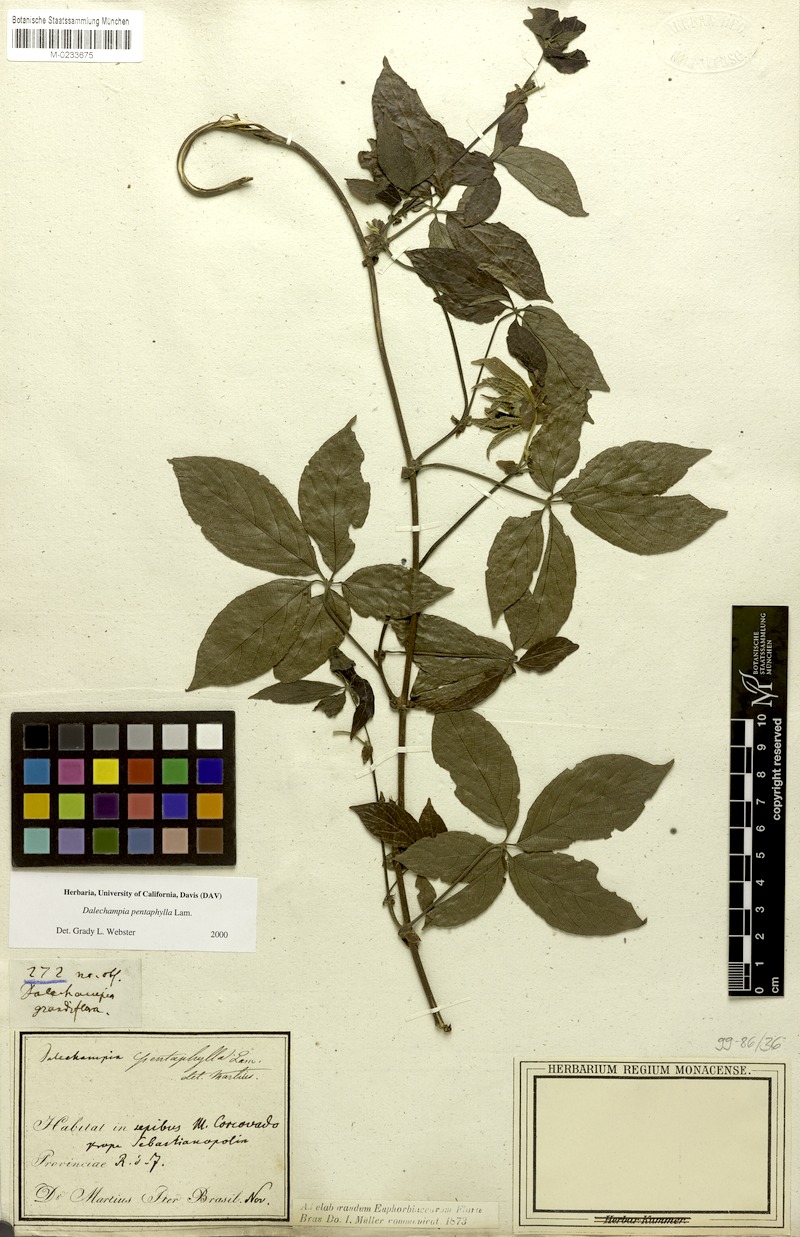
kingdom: Plantae
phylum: Tracheophyta
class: Magnoliopsida
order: Malpighiales
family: Euphorbiaceae
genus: Dalechampia
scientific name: Dalechampia pentaphylla
